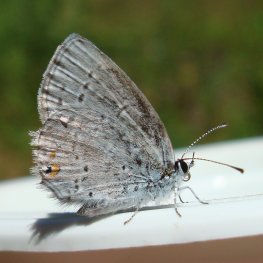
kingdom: Animalia
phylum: Arthropoda
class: Insecta
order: Lepidoptera
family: Lycaenidae
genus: Elkalyce
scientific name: Elkalyce amyntula
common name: Western Tailed-Blue
